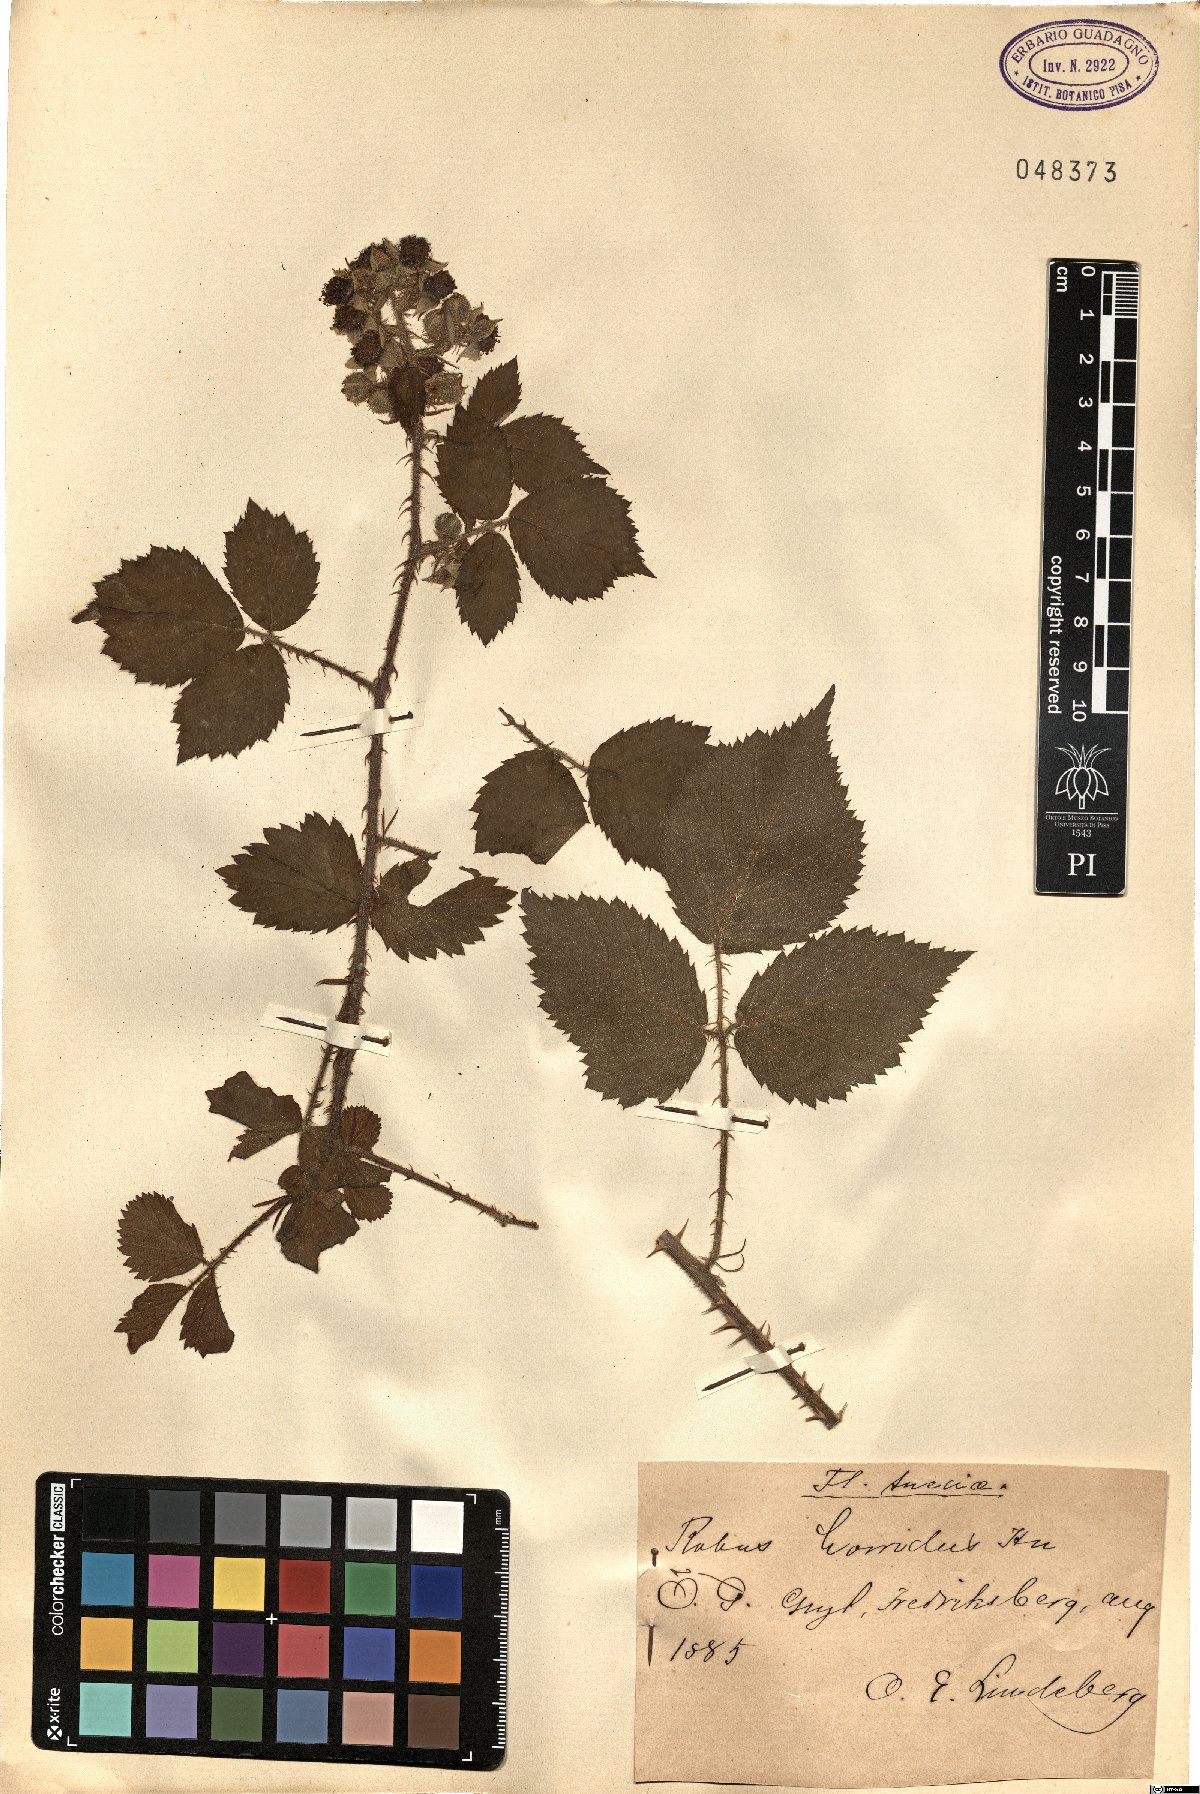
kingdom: Plantae
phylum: Tracheophyta
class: Magnoliopsida
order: Rosales
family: Rosaceae
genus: Rubus
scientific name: Rubus horridus
